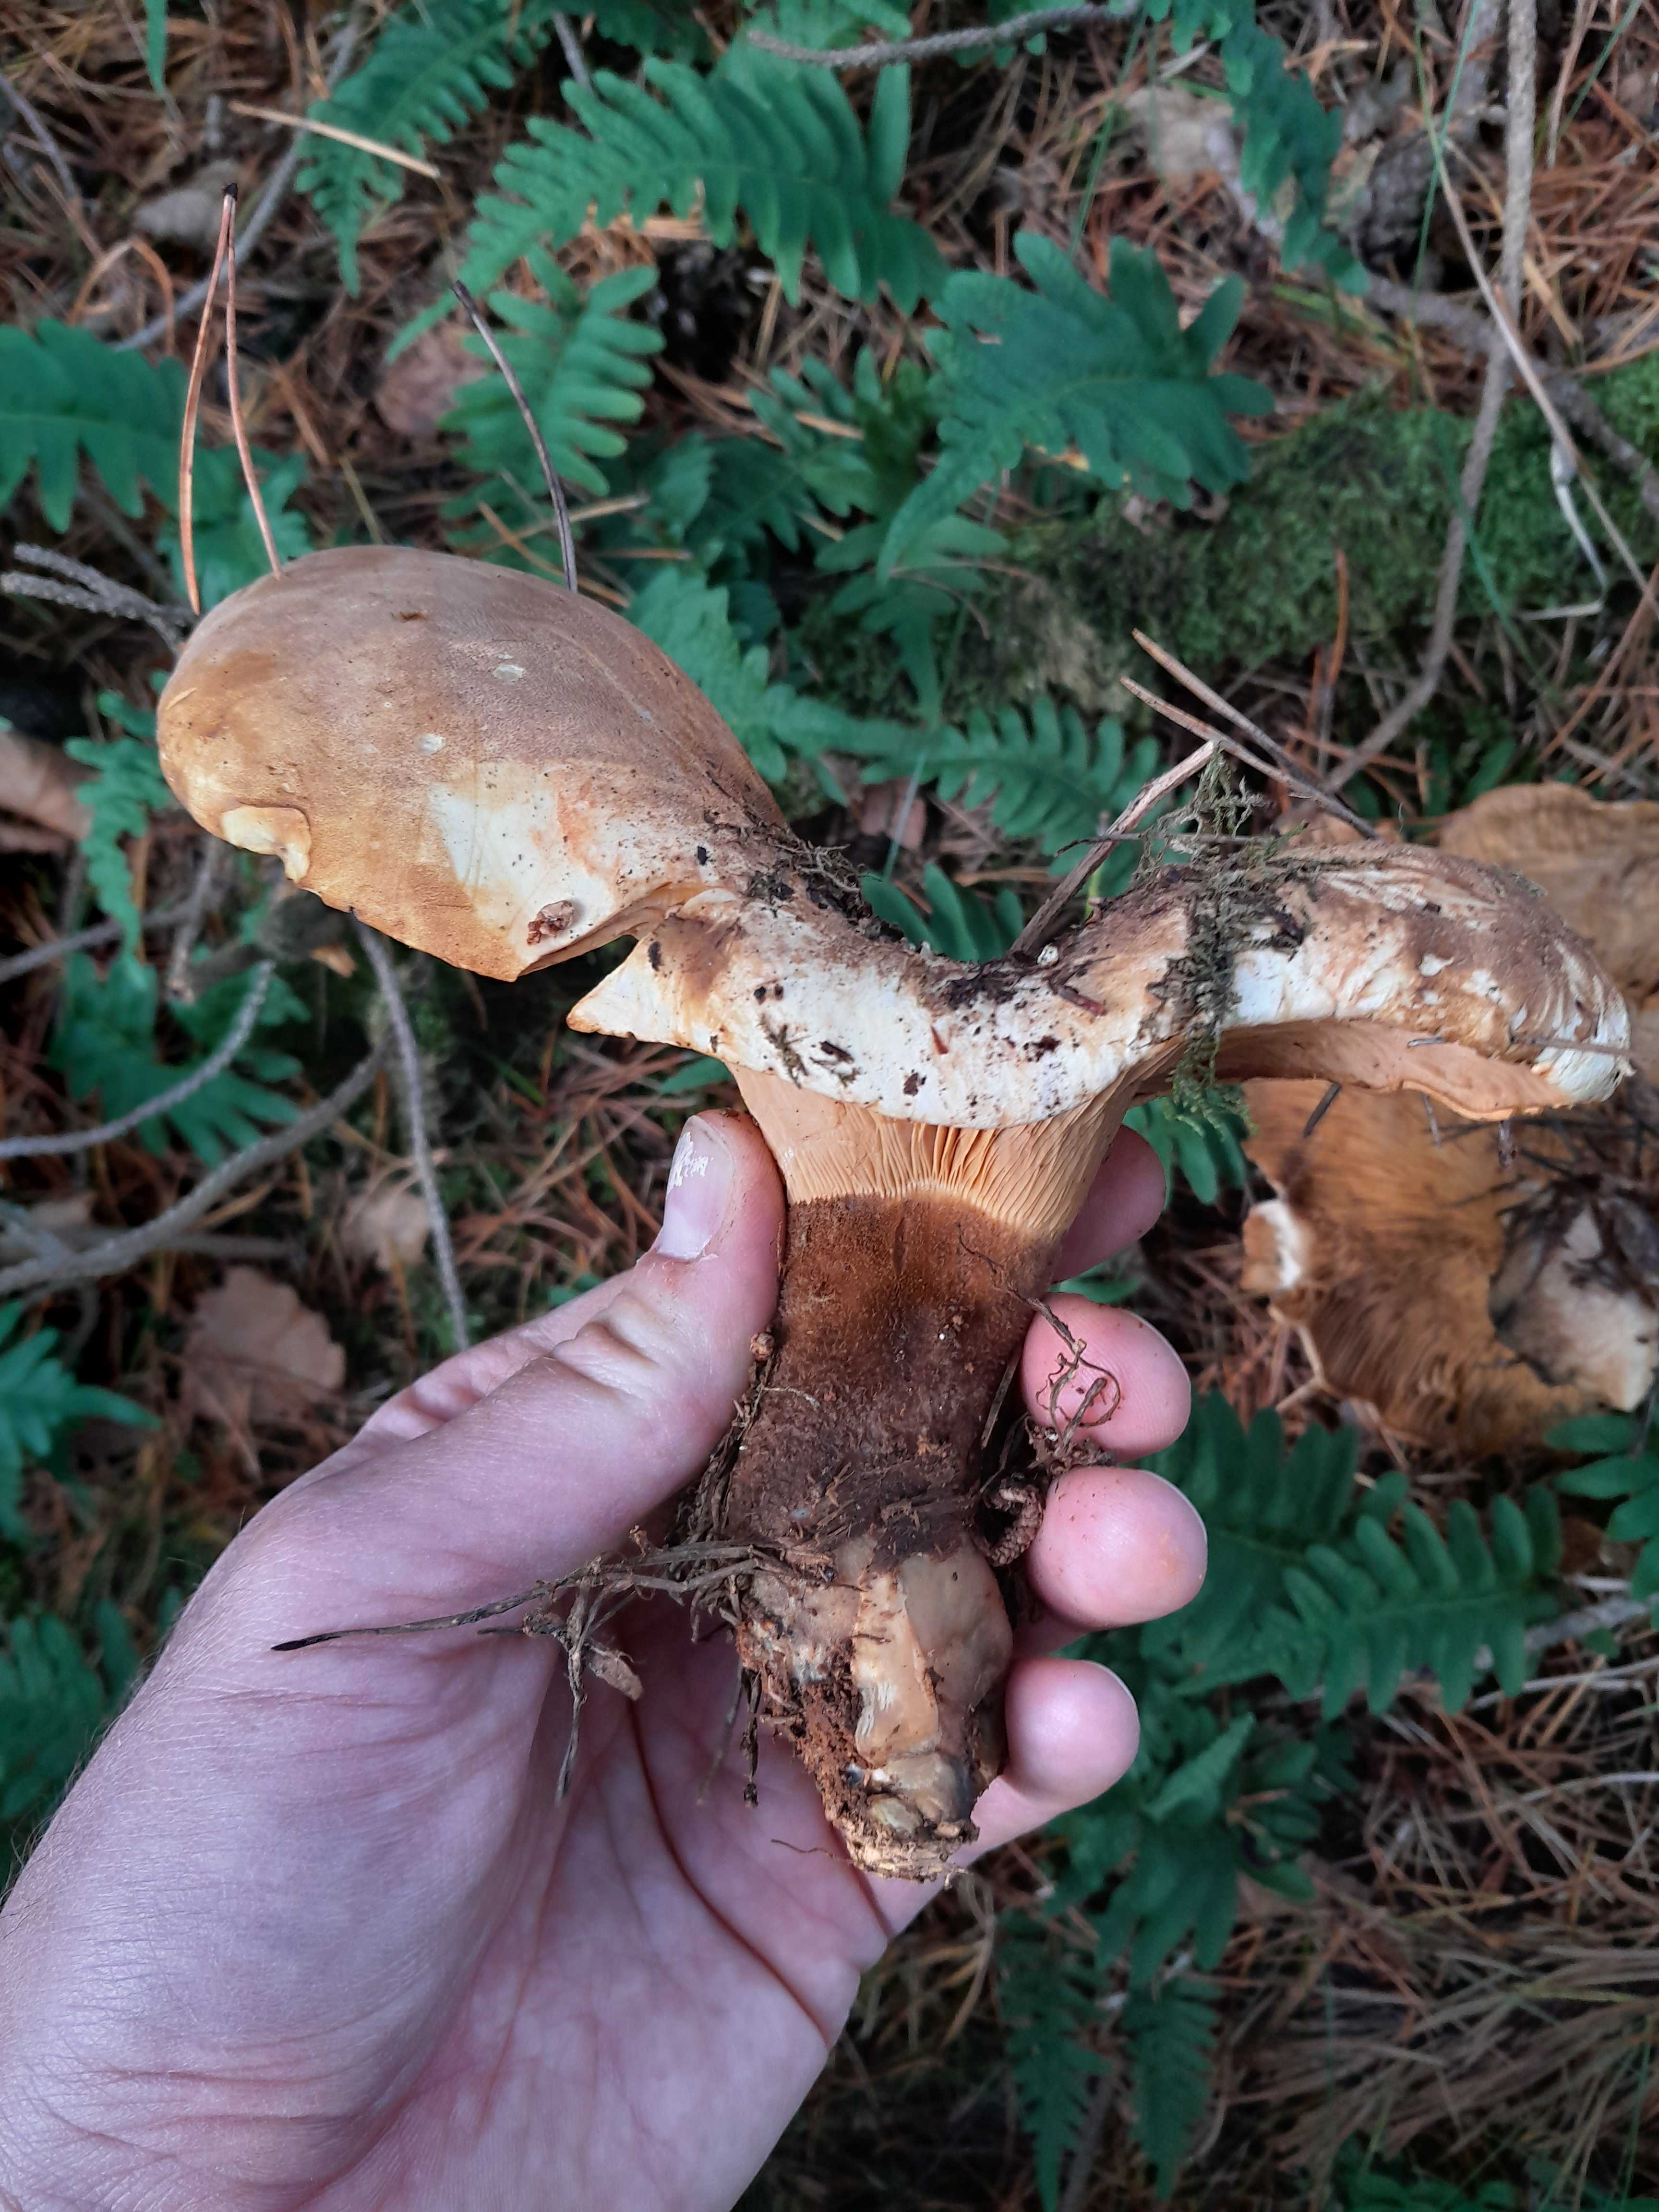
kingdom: Fungi
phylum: Basidiomycota
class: Agaricomycetes
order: Boletales
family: Tapinellaceae
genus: Tapinella
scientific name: Tapinella atrotomentosa
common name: sortfiltet viftesvamp
